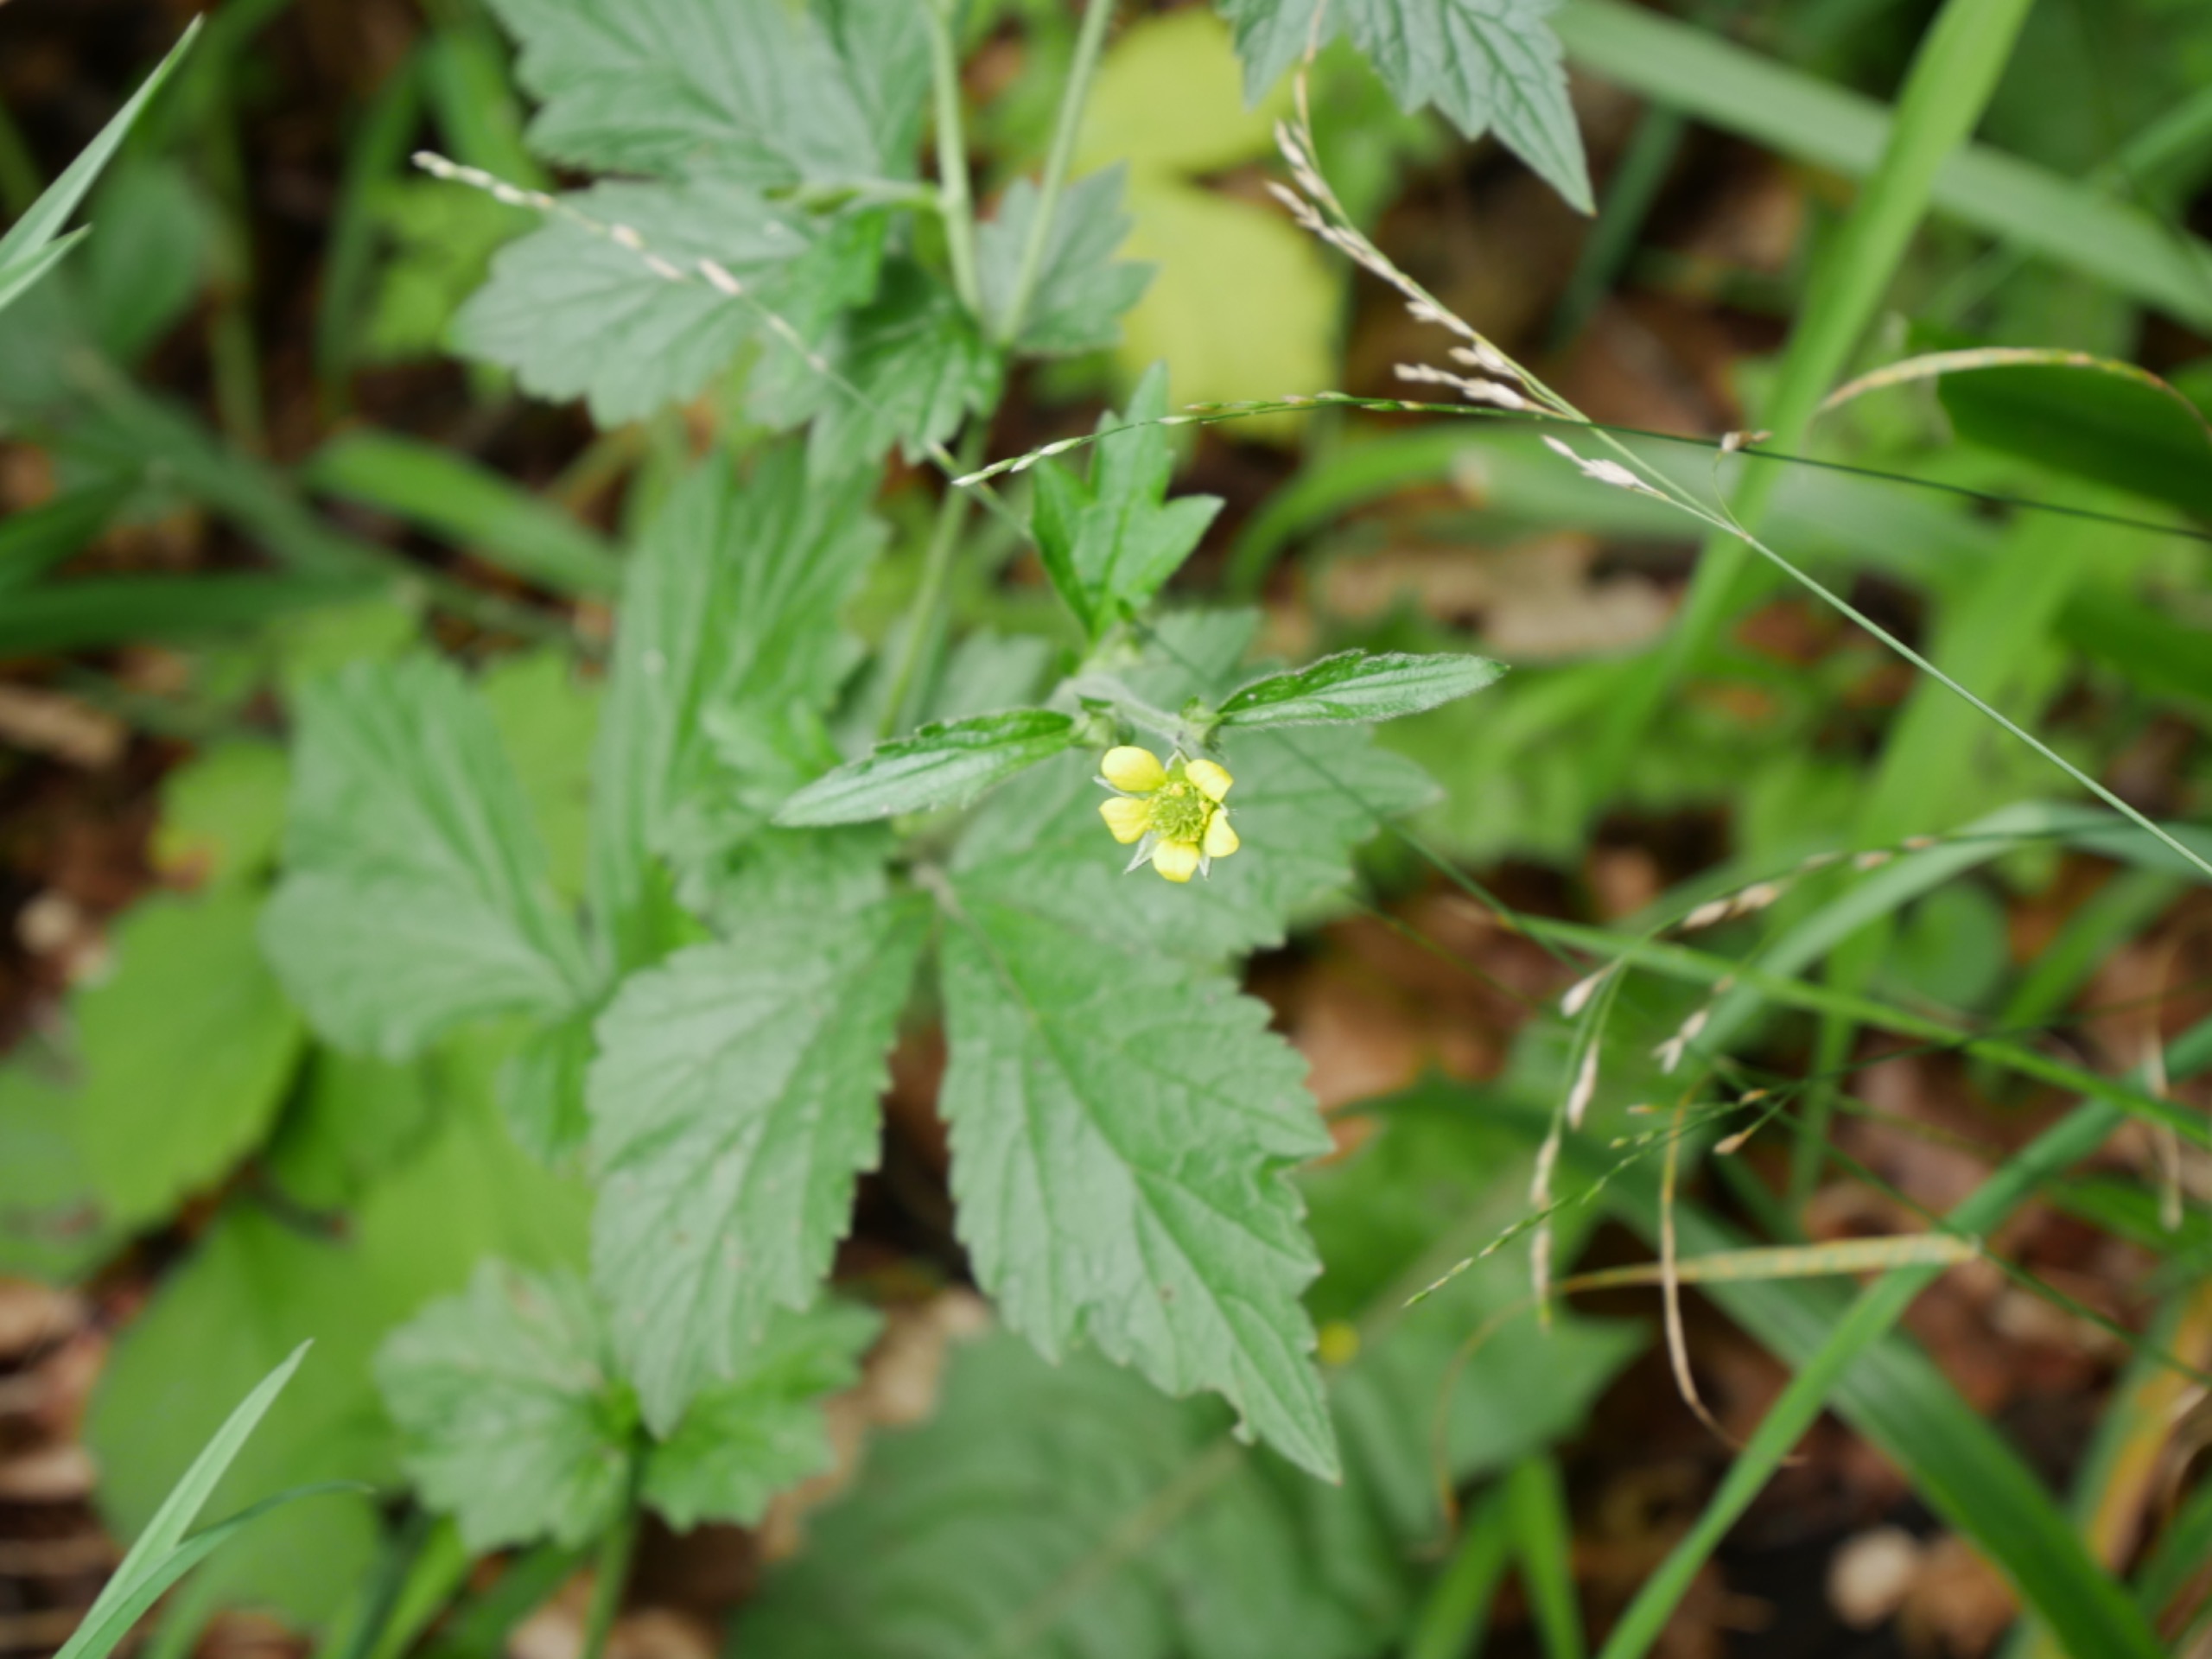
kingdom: Plantae
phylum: Tracheophyta
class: Magnoliopsida
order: Rosales
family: Rosaceae
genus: Geum
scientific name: Geum urbanum
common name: Feber-nellikerod
